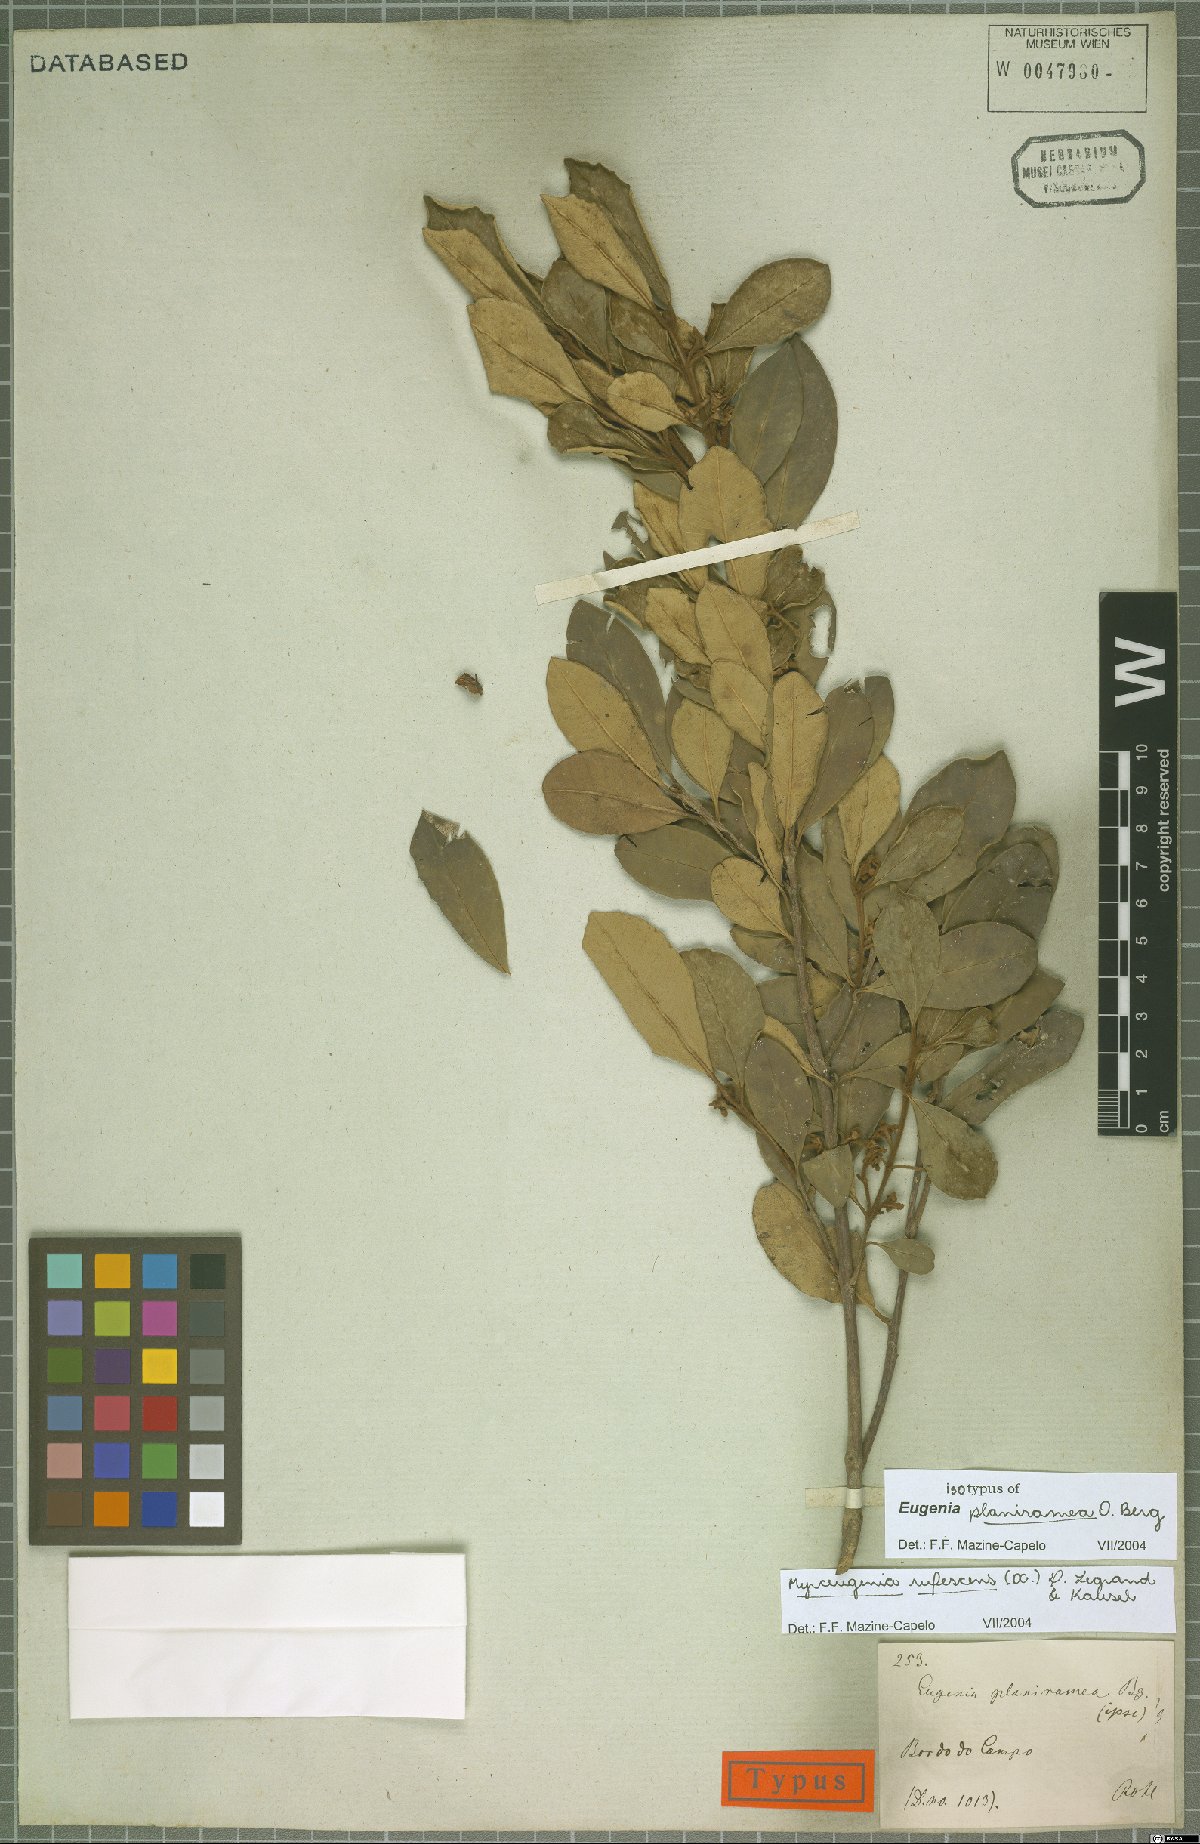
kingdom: Plantae
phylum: Tracheophyta
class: Magnoliopsida
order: Myrtales
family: Myrtaceae
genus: Myrceugenia
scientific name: Myrceugenia rufescens
